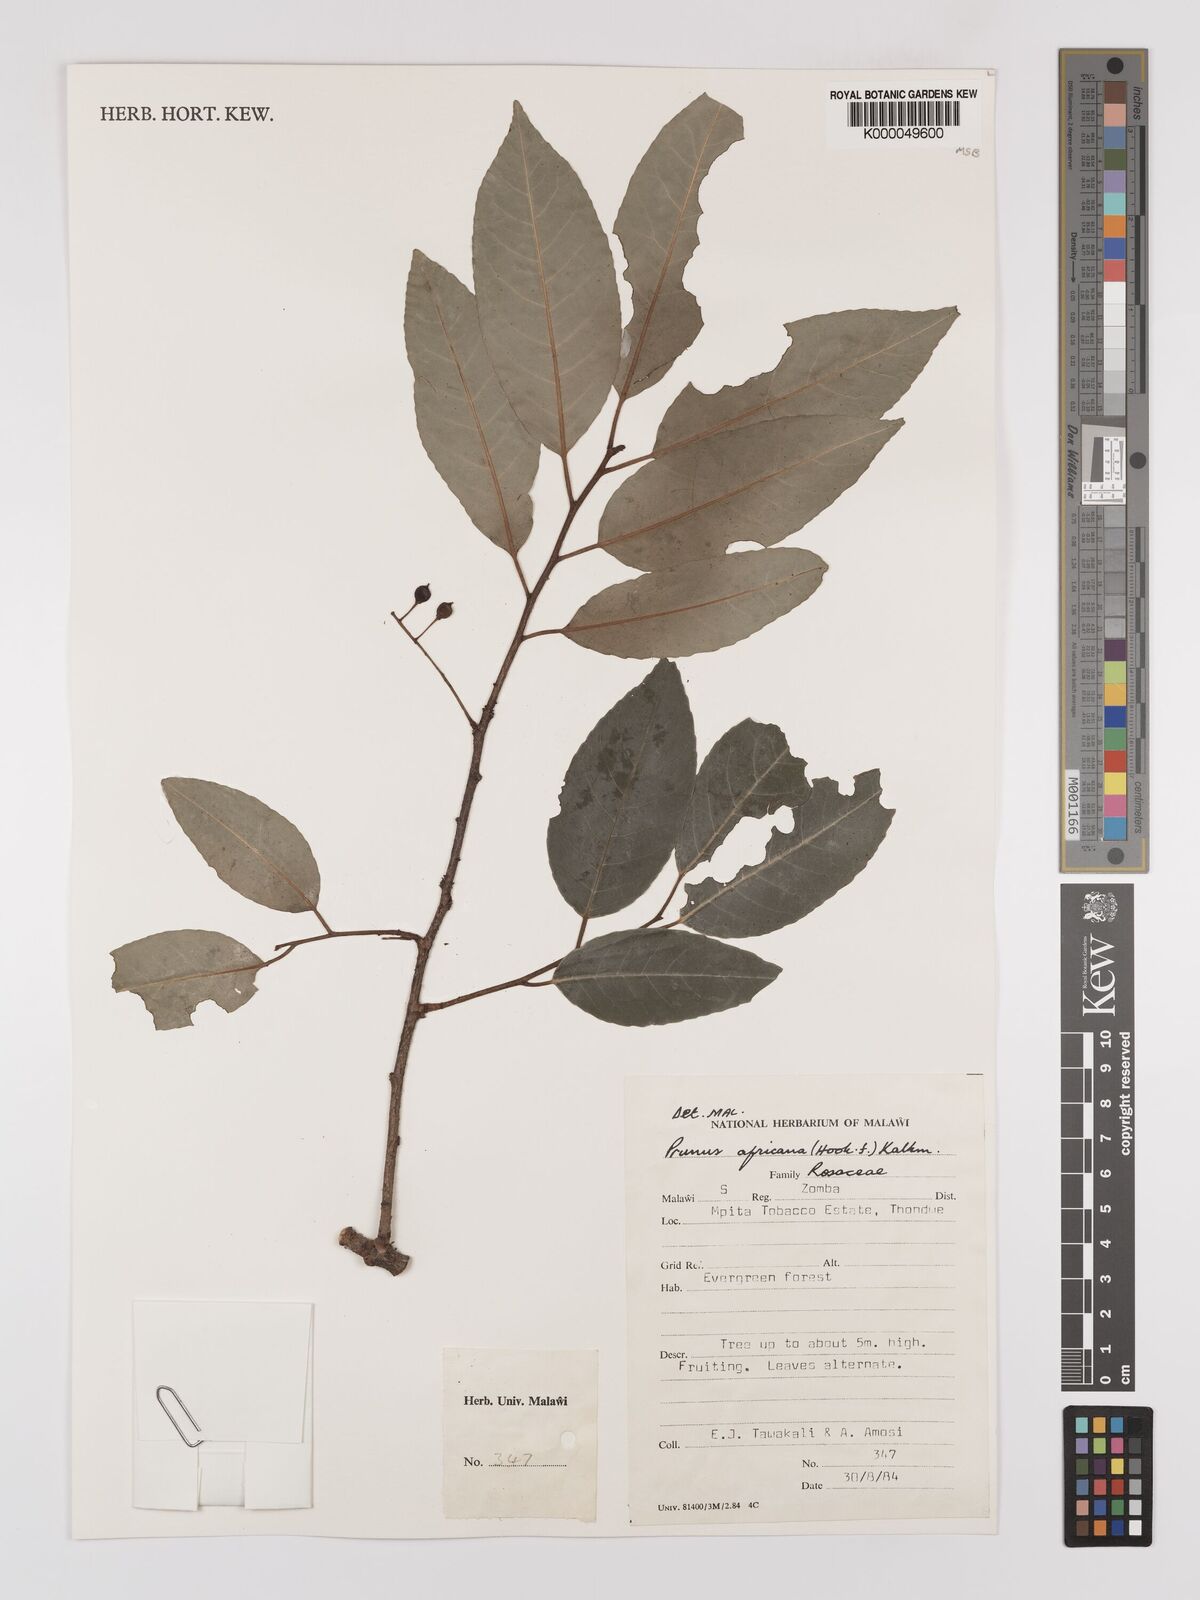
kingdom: Plantae
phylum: Tracheophyta
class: Magnoliopsida
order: Rosales
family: Rosaceae
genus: Prunus
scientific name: Prunus africana
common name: African cherry
